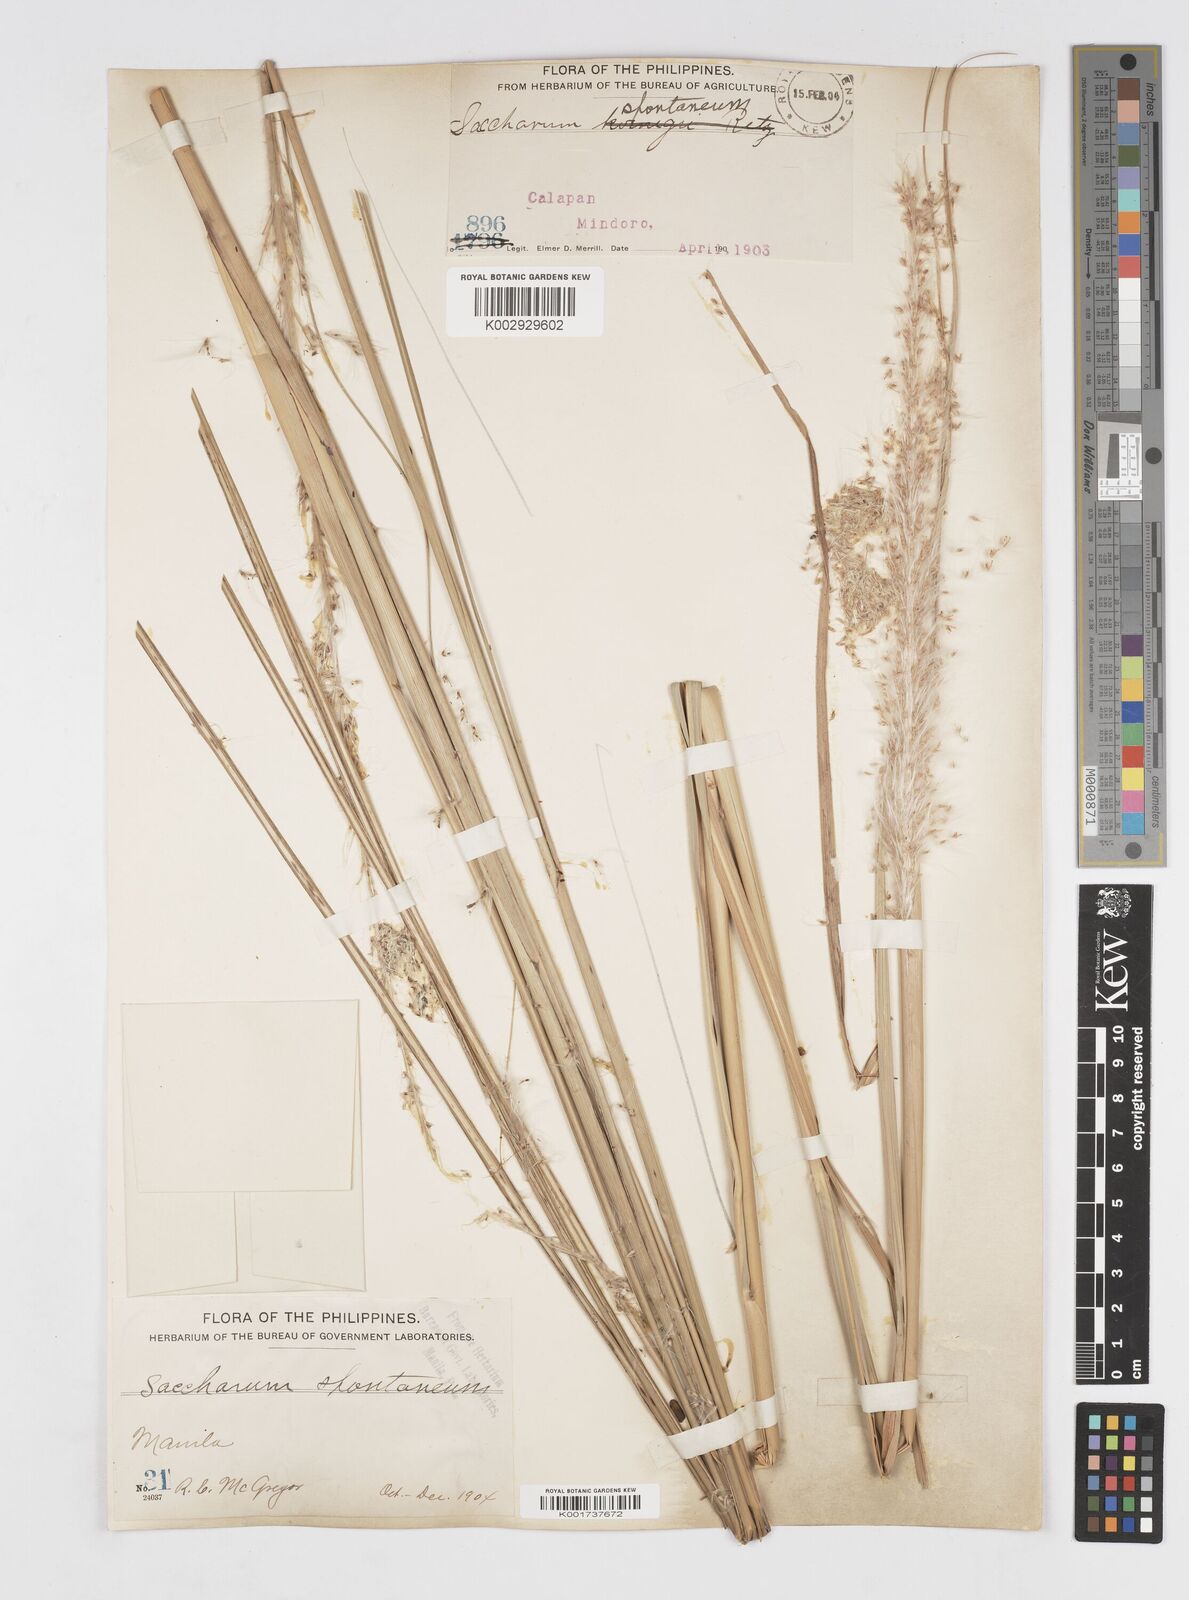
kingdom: Plantae
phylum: Tracheophyta
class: Liliopsida
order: Poales
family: Poaceae
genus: Saccharum
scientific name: Saccharum spontaneum
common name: Wild sugarcane
